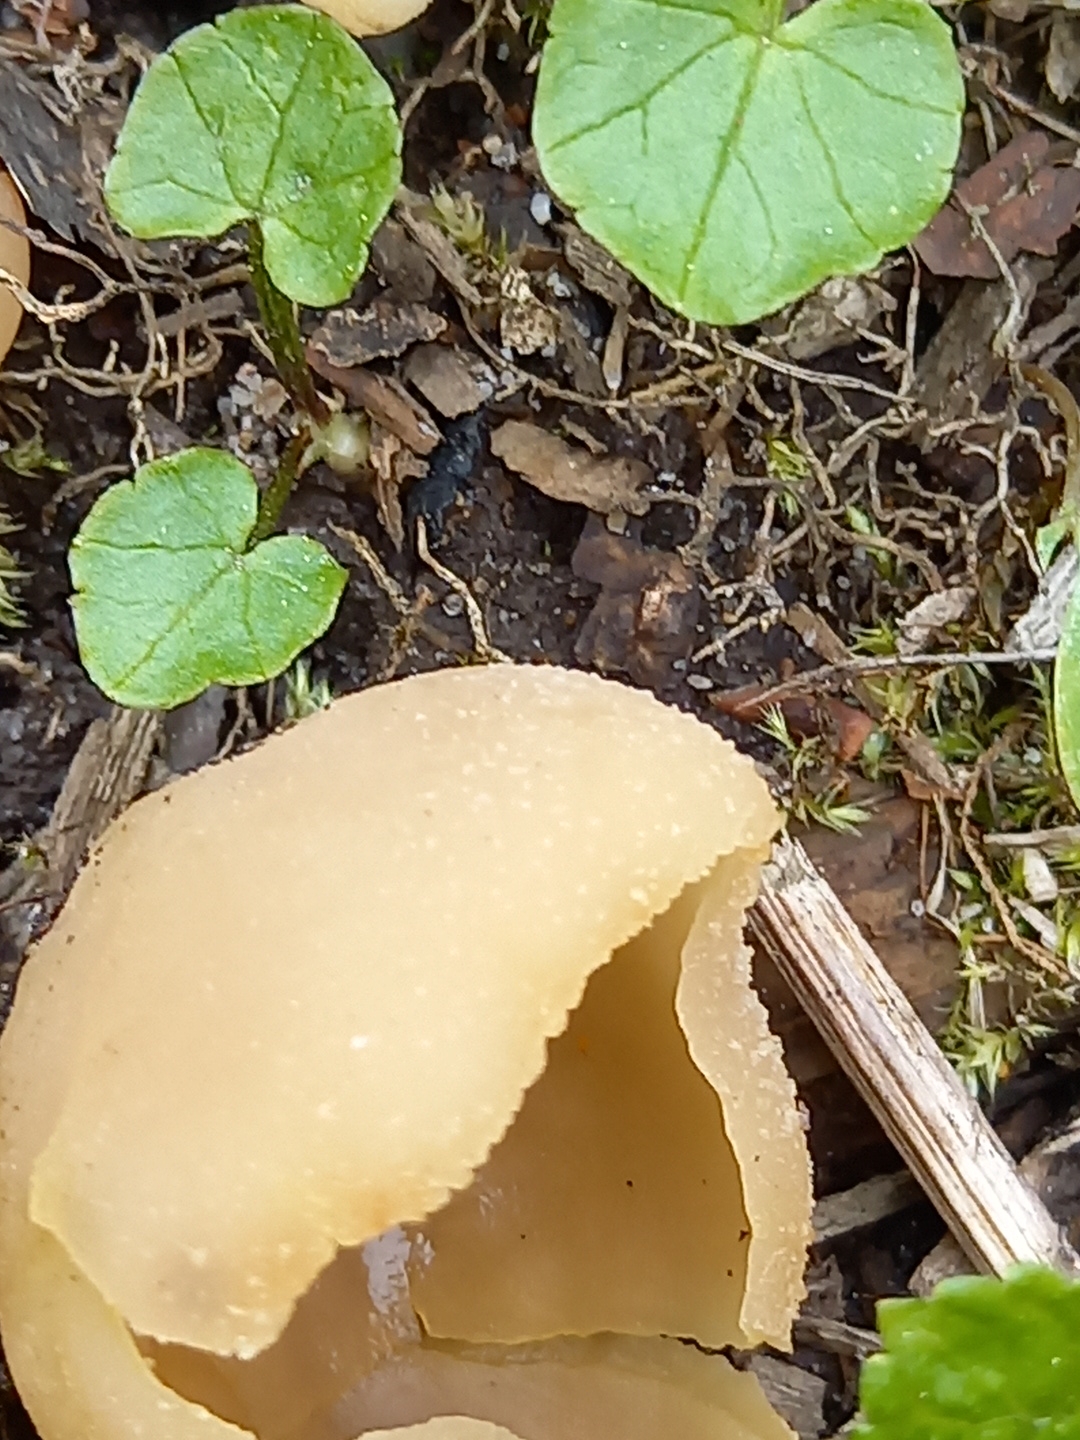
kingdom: Fungi
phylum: Ascomycota
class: Pezizomycetes
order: Pezizales
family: Pezizaceae
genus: Peziza
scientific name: Peziza
